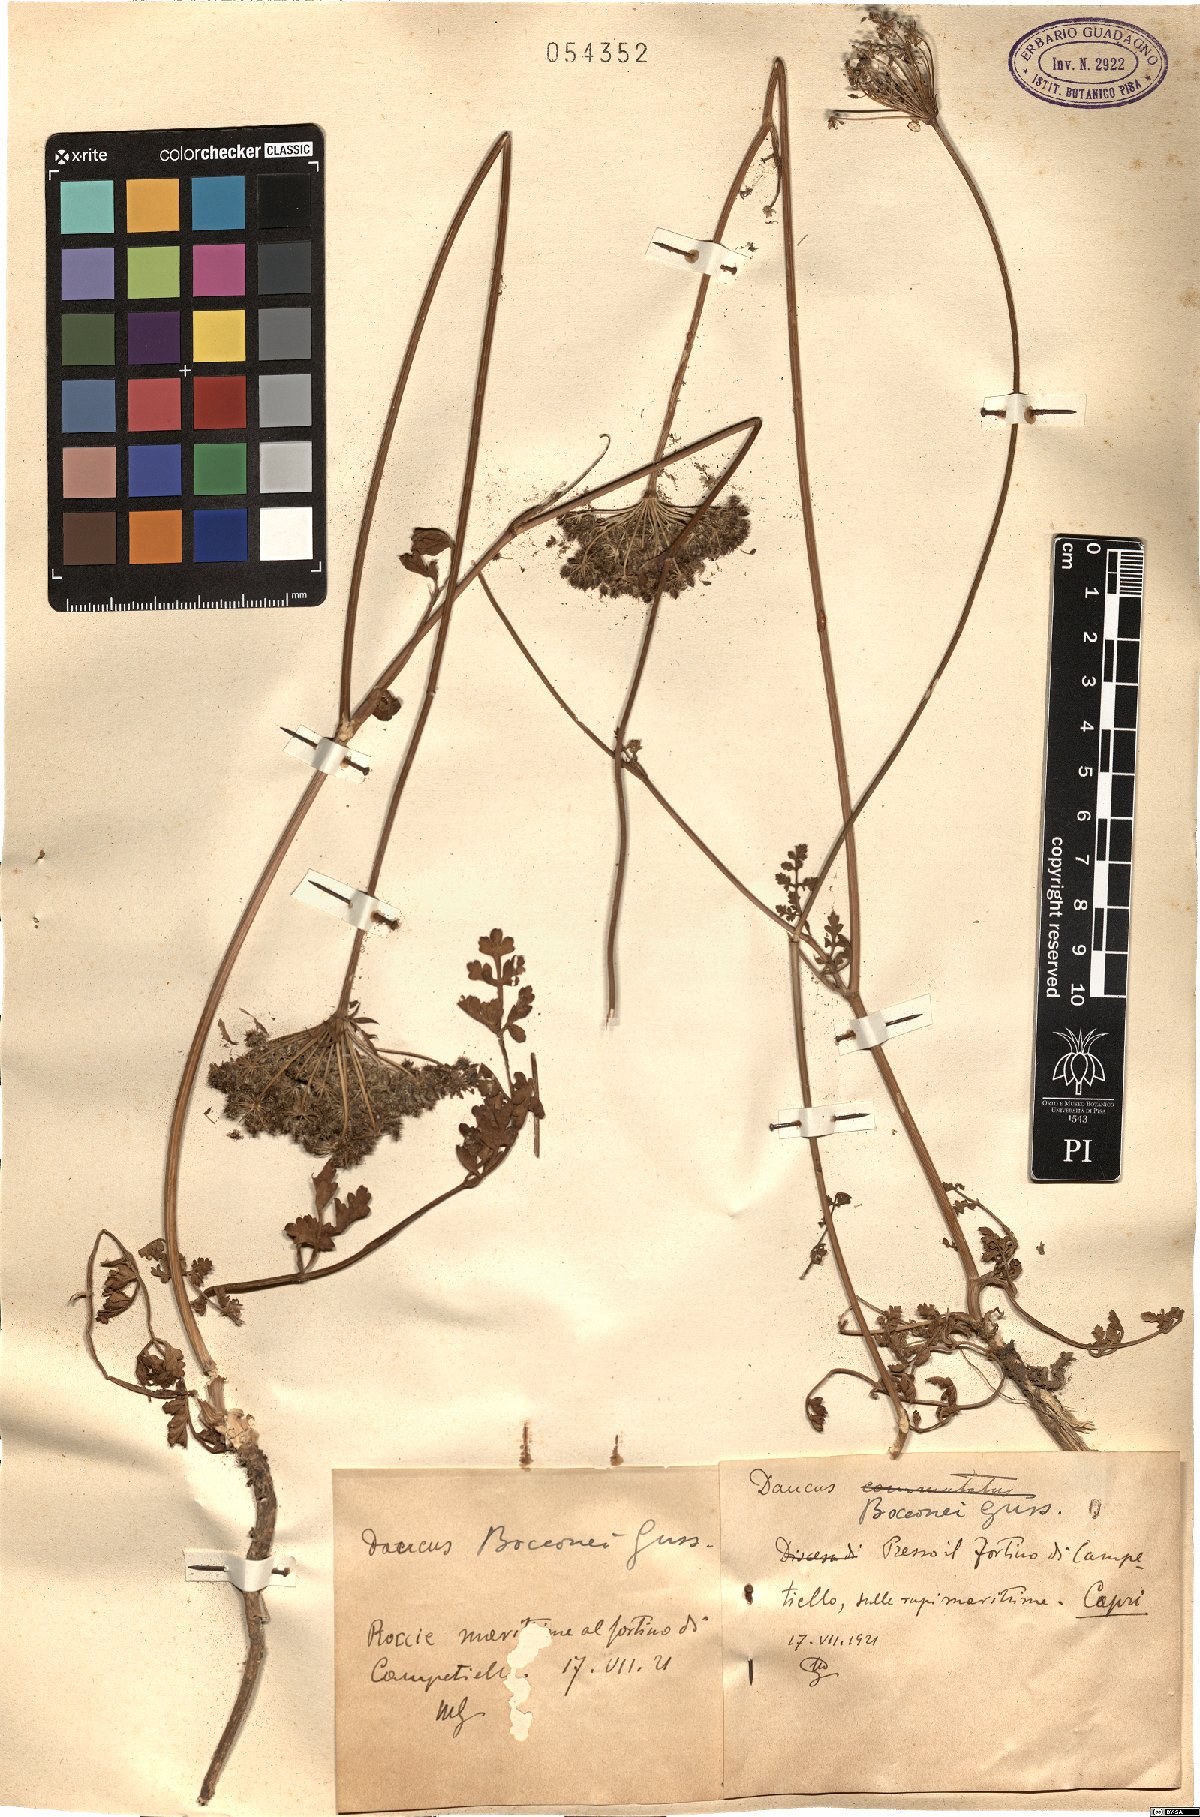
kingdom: Plantae
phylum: Tracheophyta
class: Magnoliopsida
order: Apiales
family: Apiaceae
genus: Daucus
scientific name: Daucus carota
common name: Wild carrot
